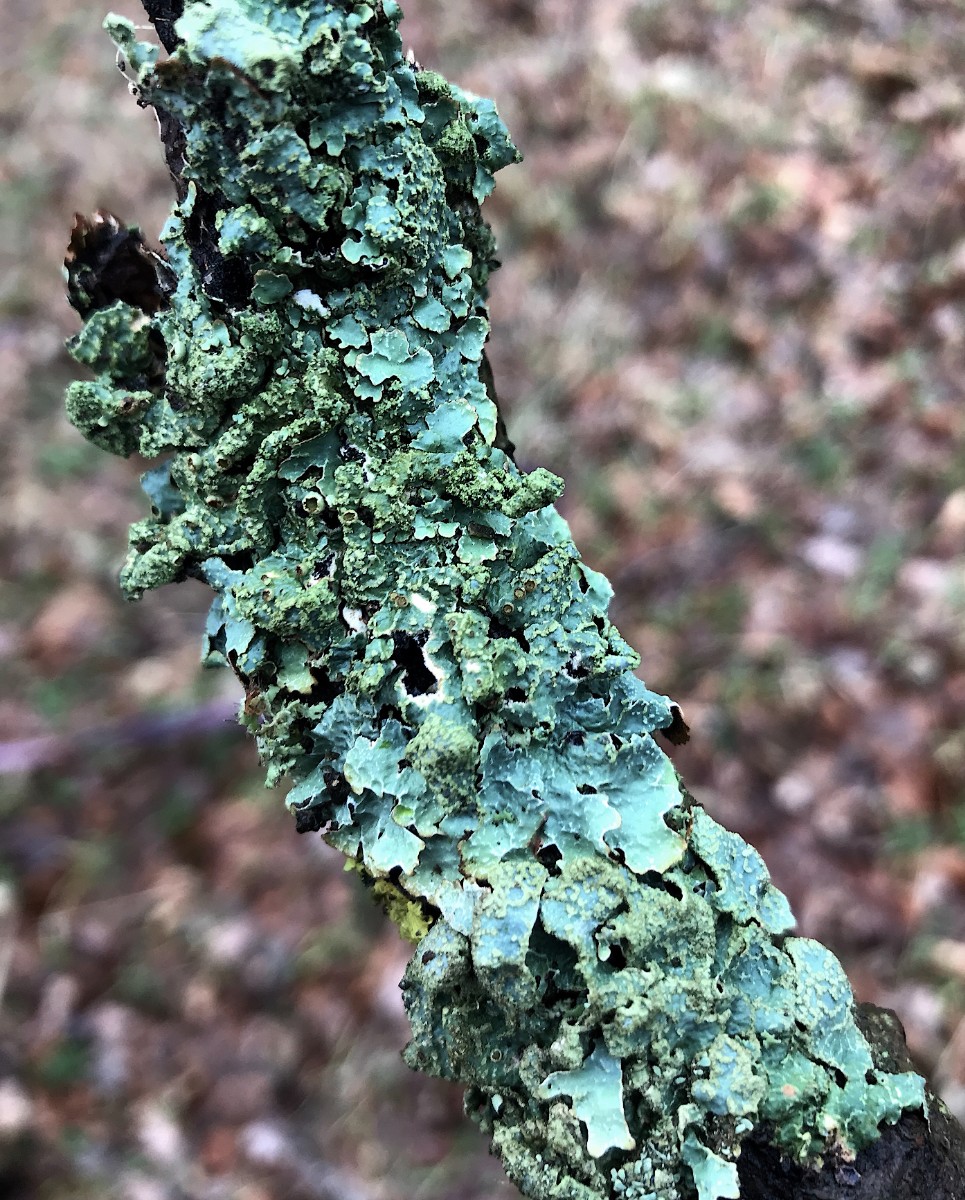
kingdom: Fungi
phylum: Ascomycota
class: Lecanoromycetes
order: Lecanorales
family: Parmeliaceae
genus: Parmelia
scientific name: Parmelia sulcata
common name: rynket skållav
